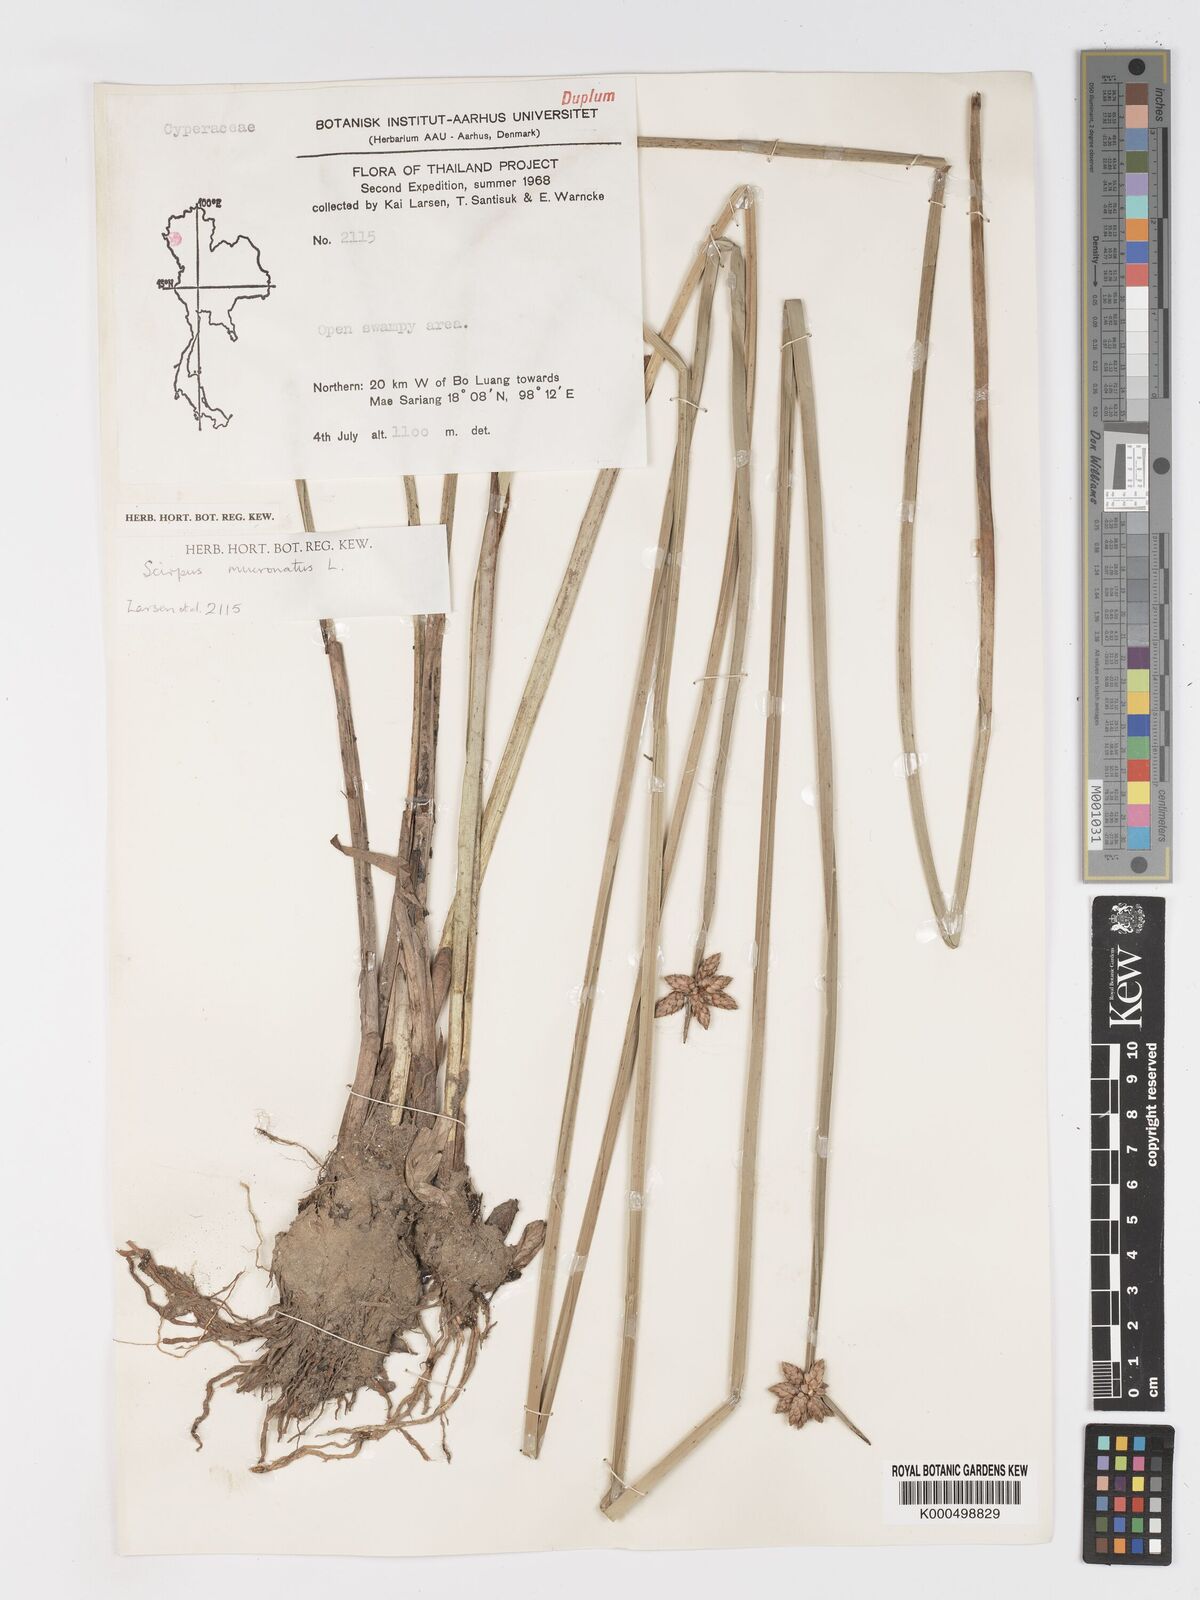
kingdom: Plantae
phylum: Tracheophyta
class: Liliopsida
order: Poales
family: Cyperaceae
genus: Schoenoplectiella
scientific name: Schoenoplectiella mucronata
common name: Bog bulrush
